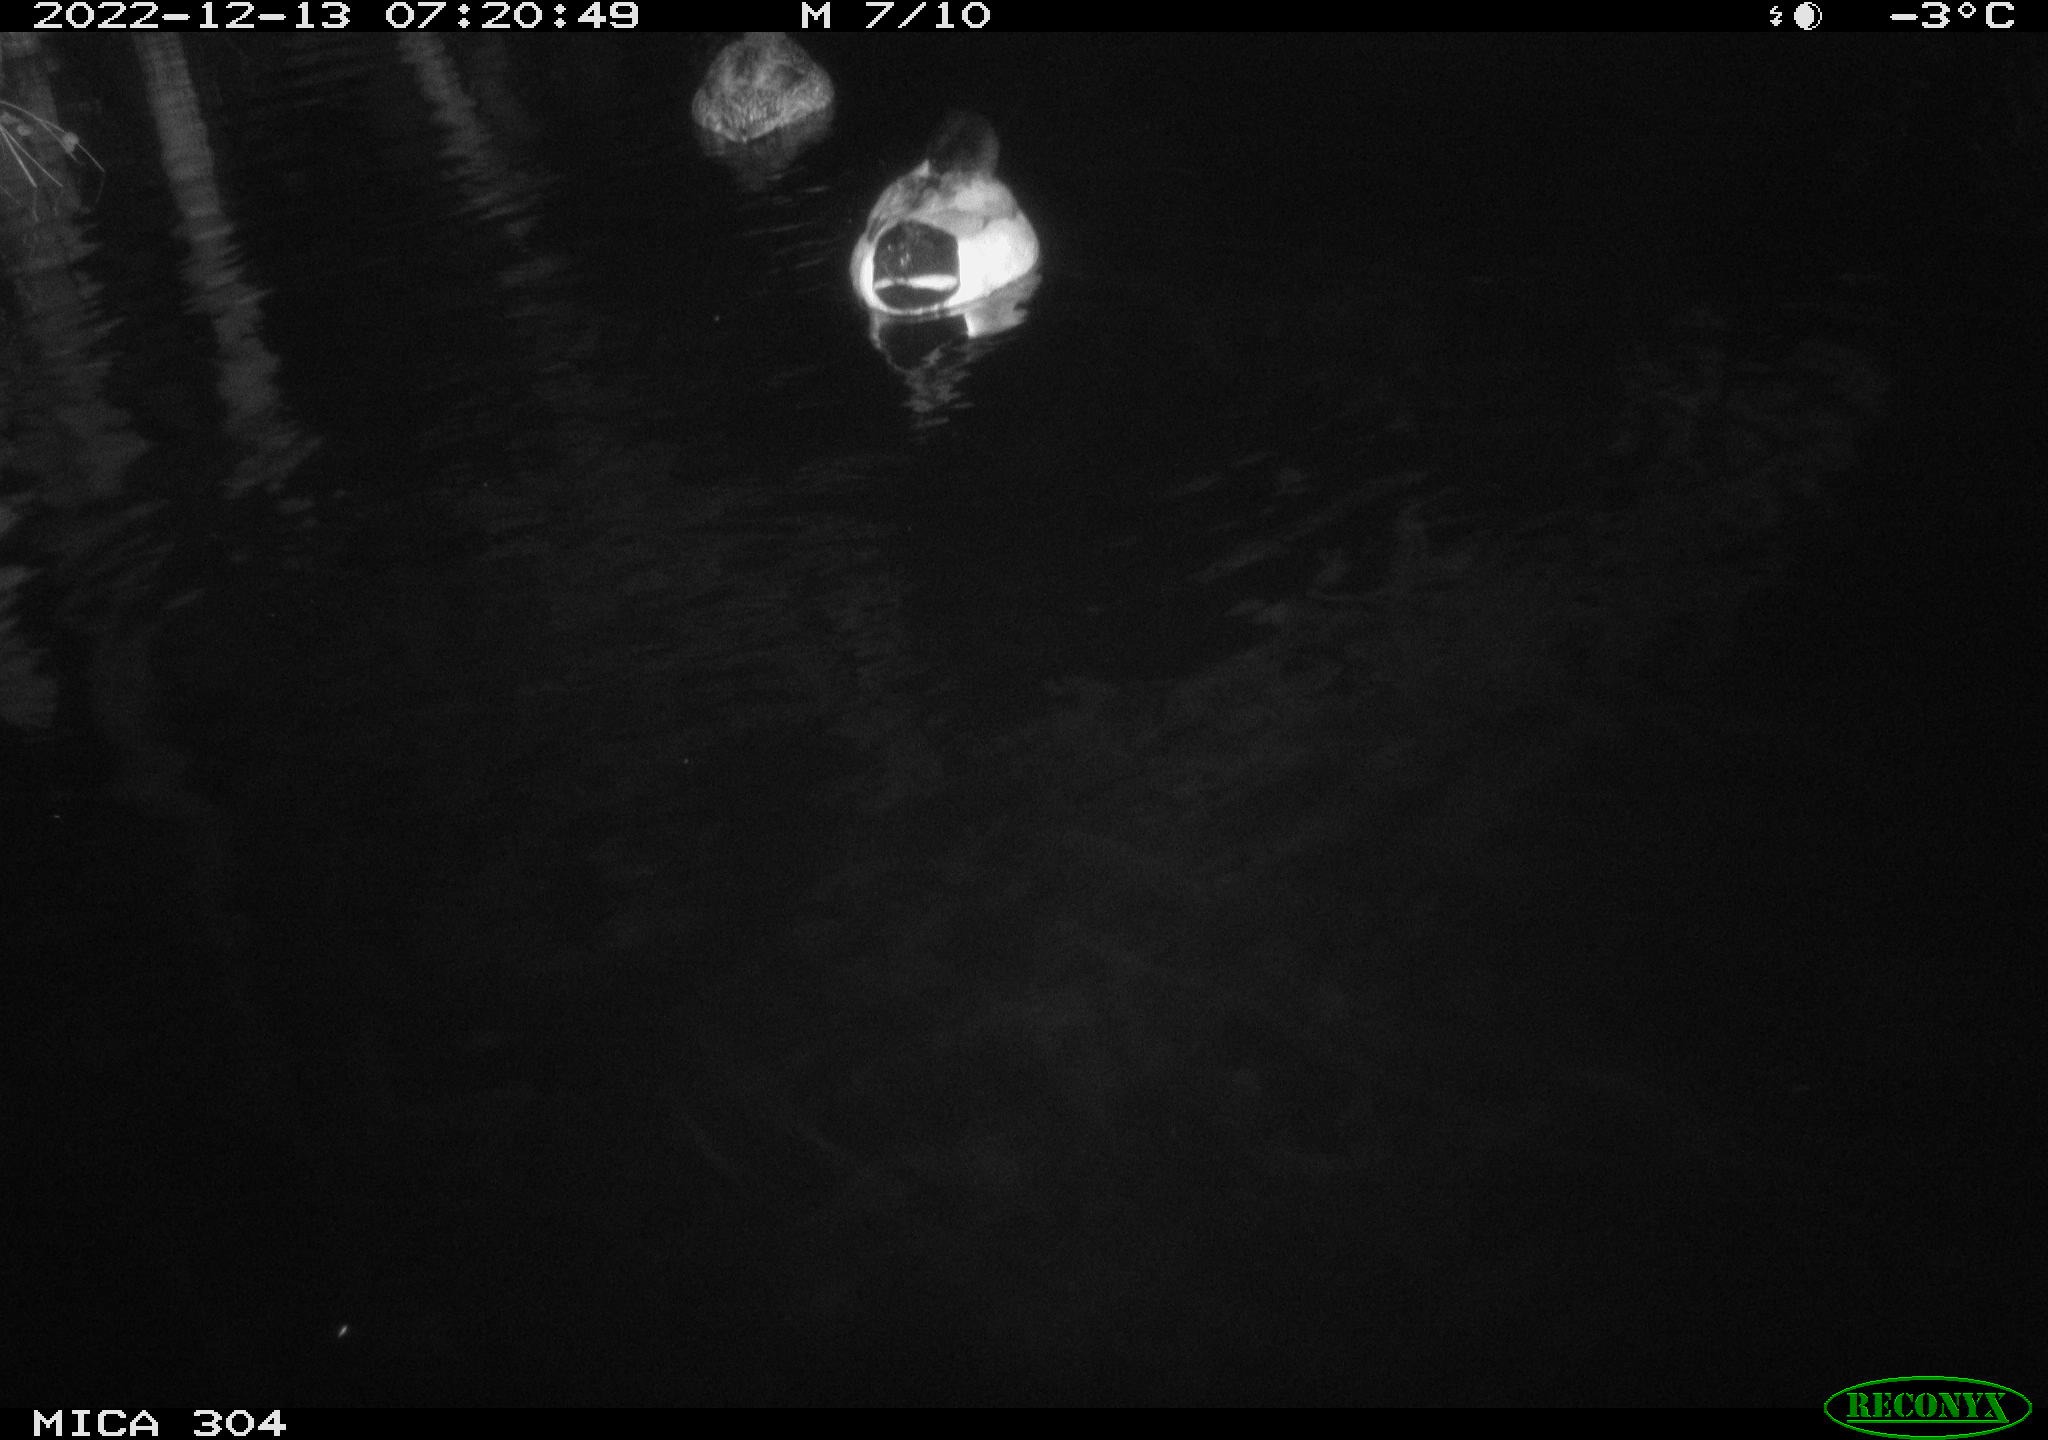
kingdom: Animalia
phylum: Chordata
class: Aves
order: Anseriformes
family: Anatidae
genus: Anas
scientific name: Anas
